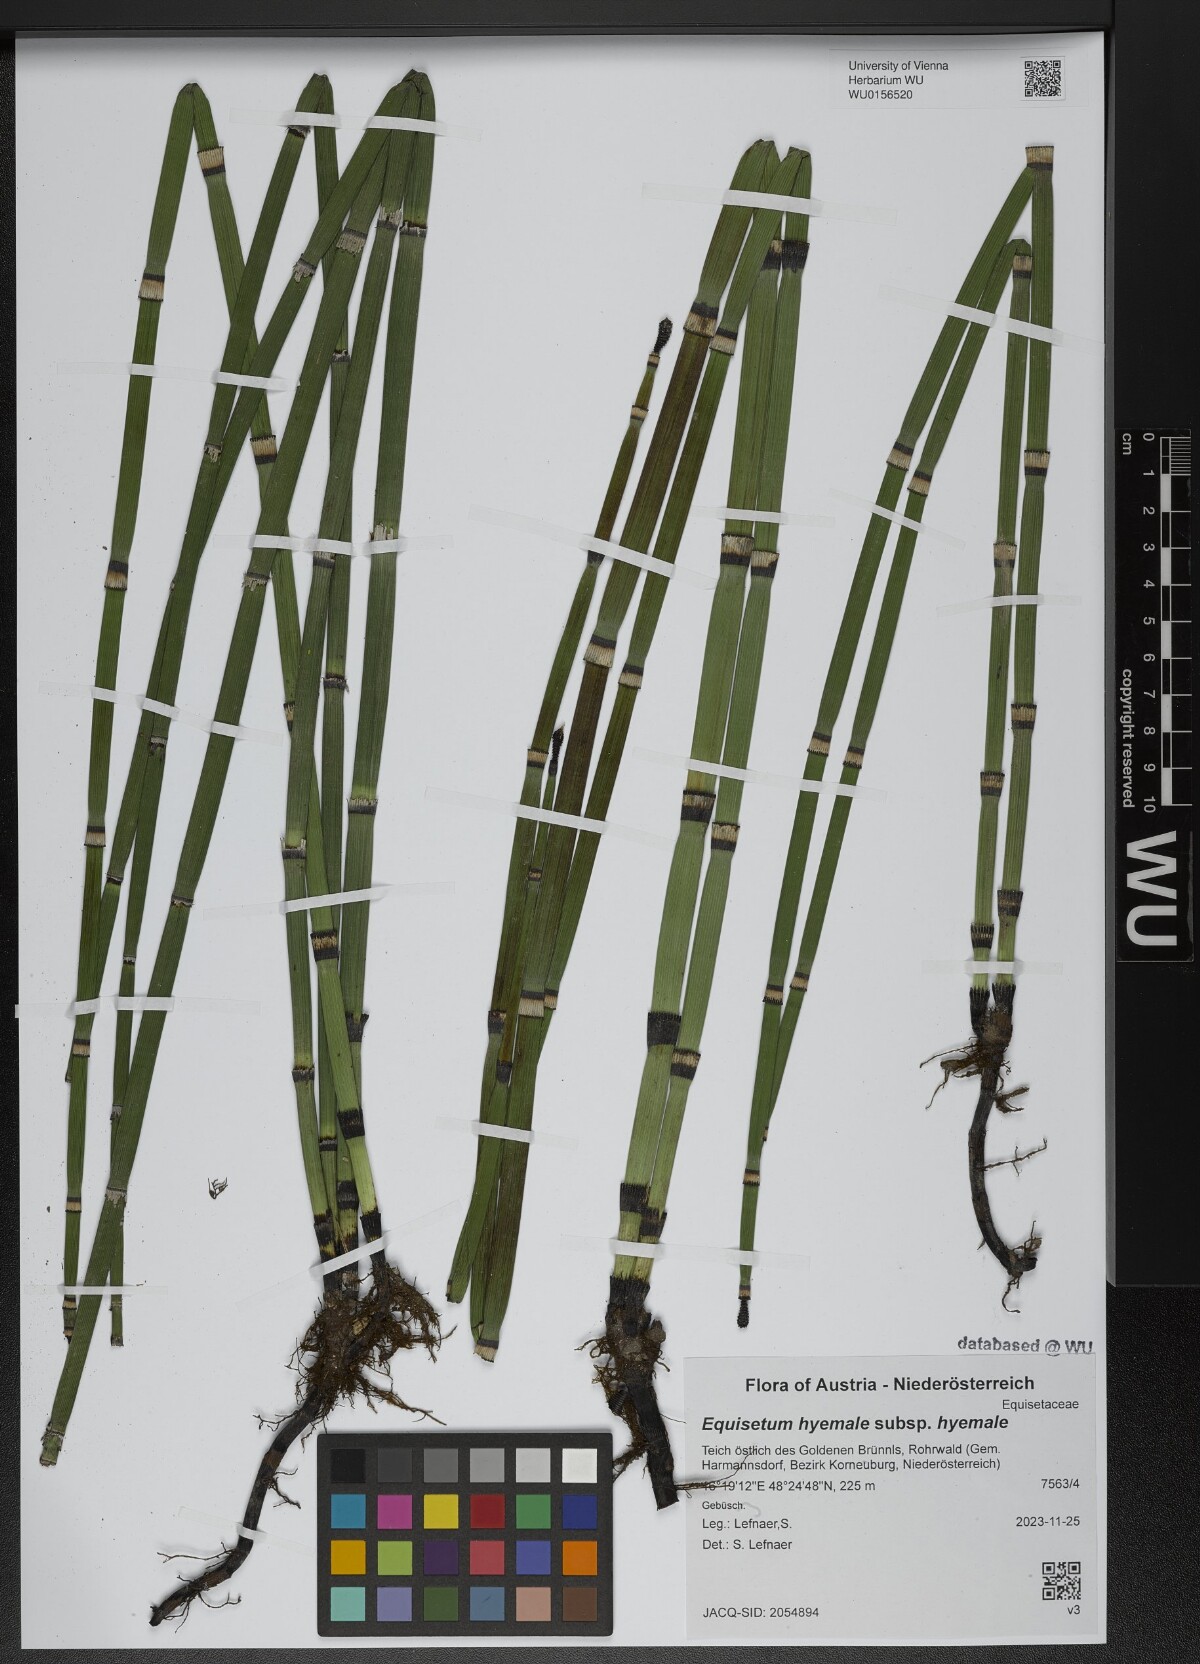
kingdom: Plantae
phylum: Tracheophyta
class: Polypodiopsida
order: Equisetales
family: Equisetaceae
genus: Equisetum
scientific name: Equisetum hyemale
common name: Rough horsetail
